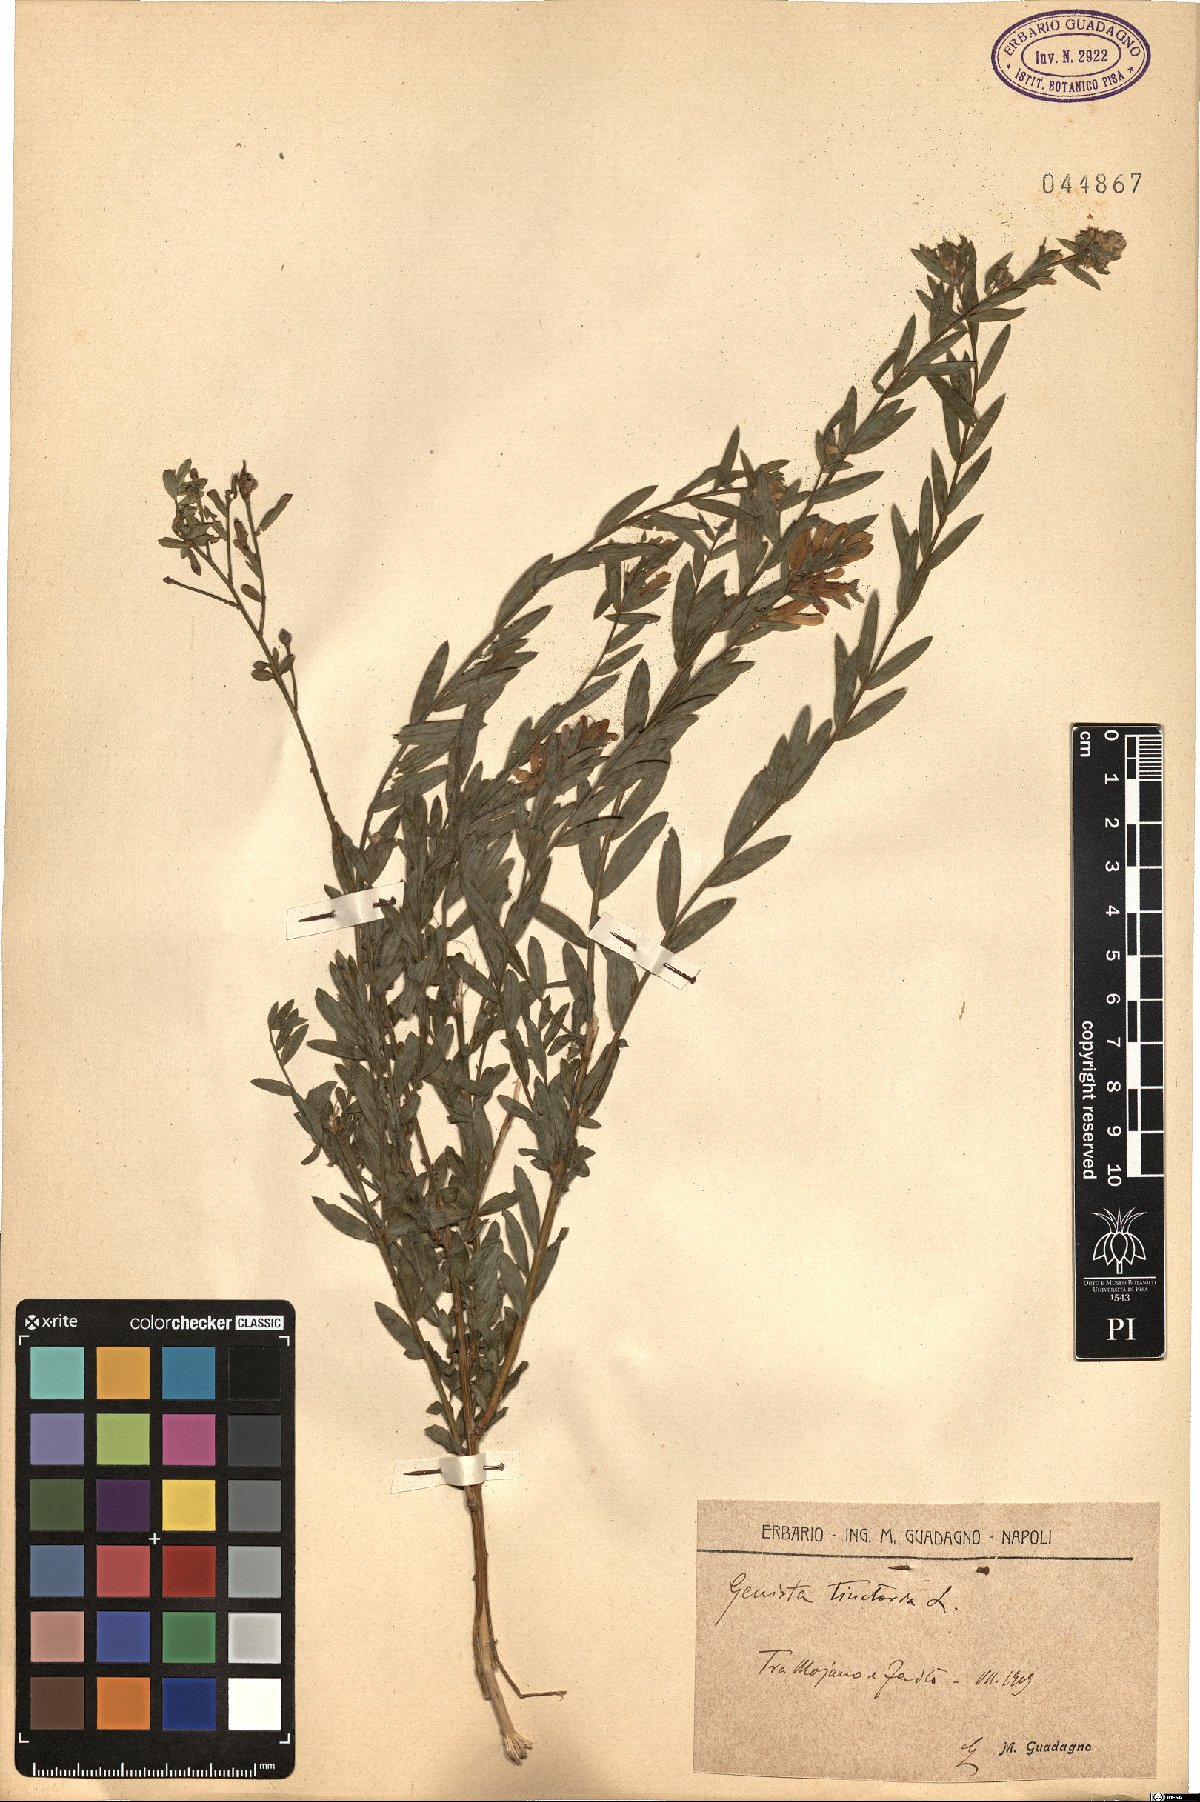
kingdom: Plantae
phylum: Tracheophyta
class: Magnoliopsida
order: Fabales
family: Fabaceae
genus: Genista
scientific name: Genista tinctoria
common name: Dyer's greenweed
